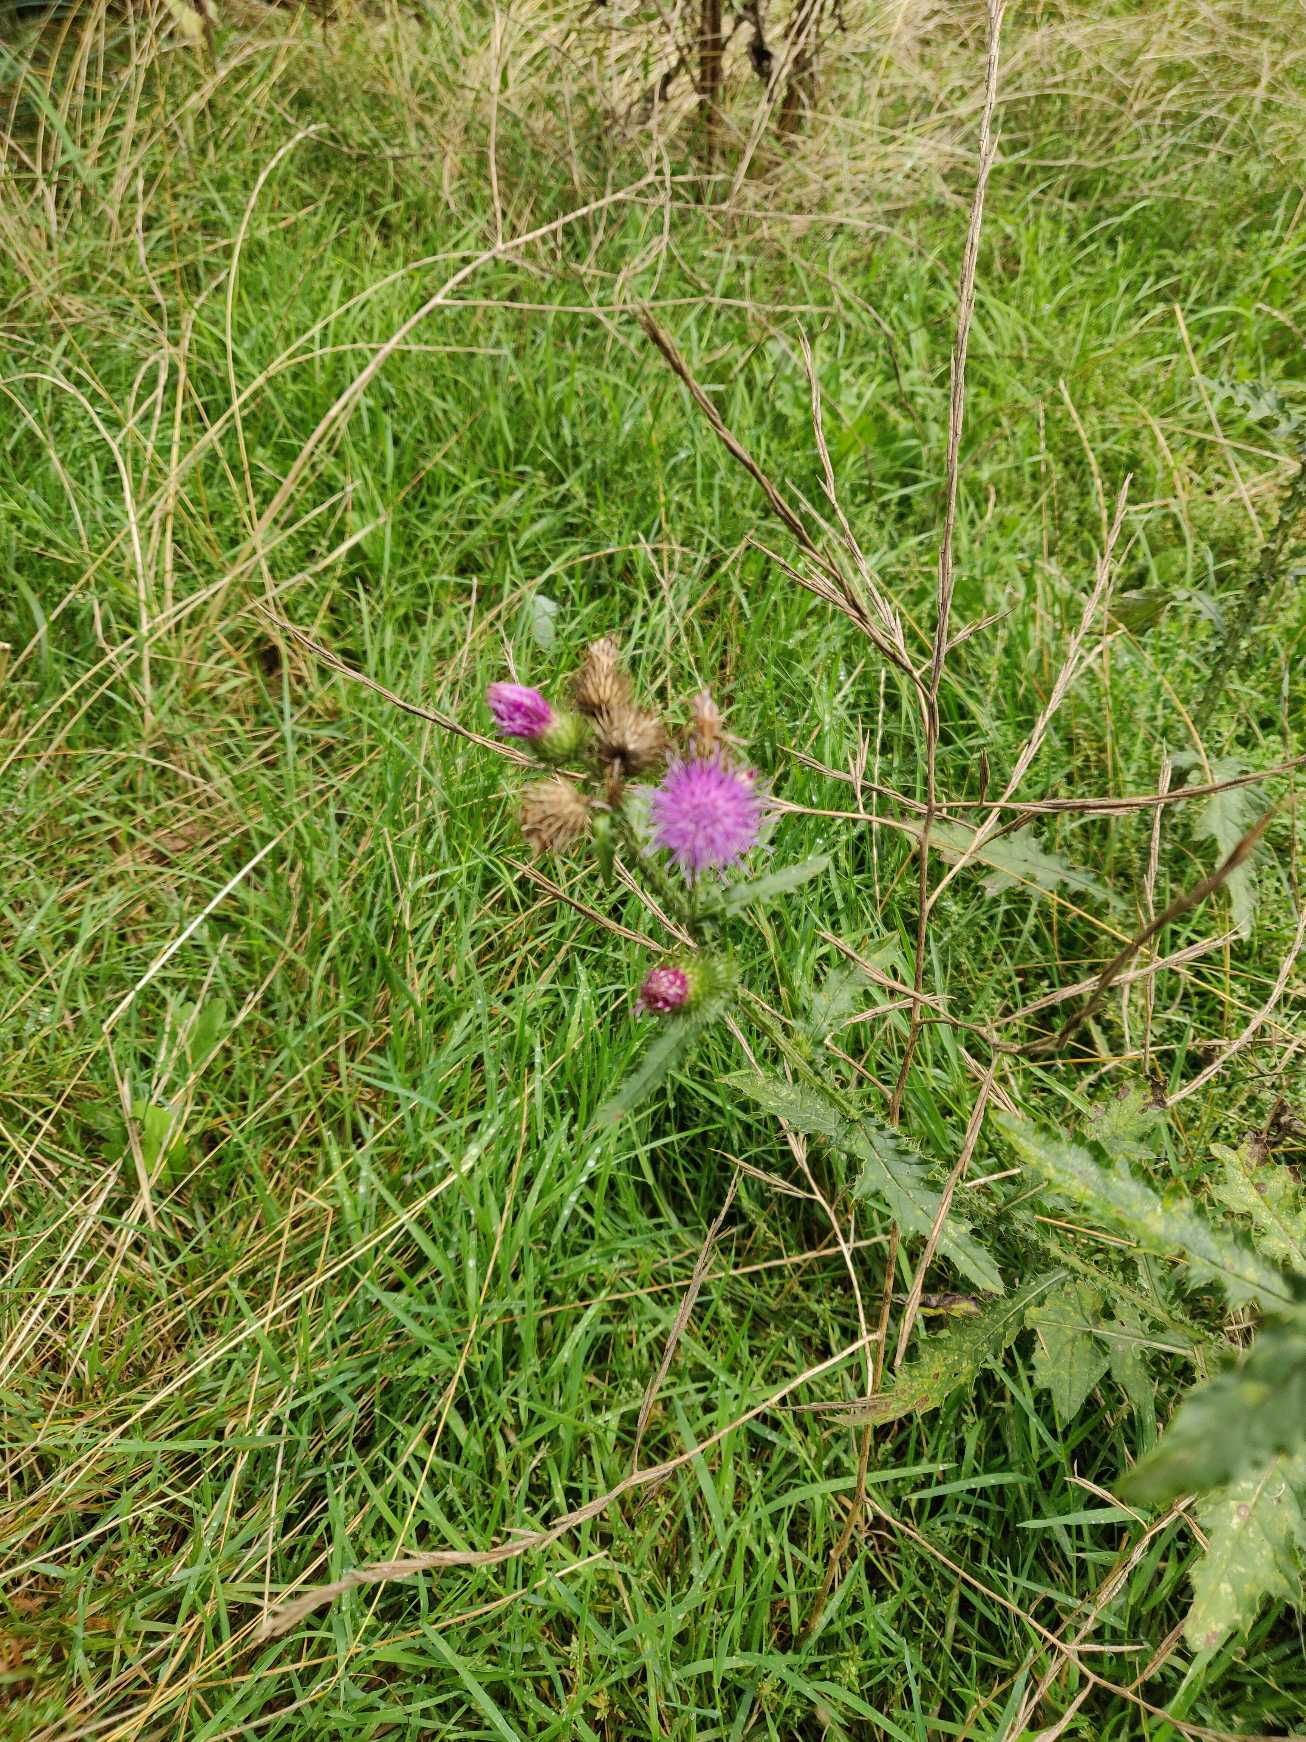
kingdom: Plantae
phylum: Tracheophyta
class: Magnoliopsida
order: Asterales
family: Asteraceae
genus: Carduus
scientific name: Carduus crispus
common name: Kruset tidsel
